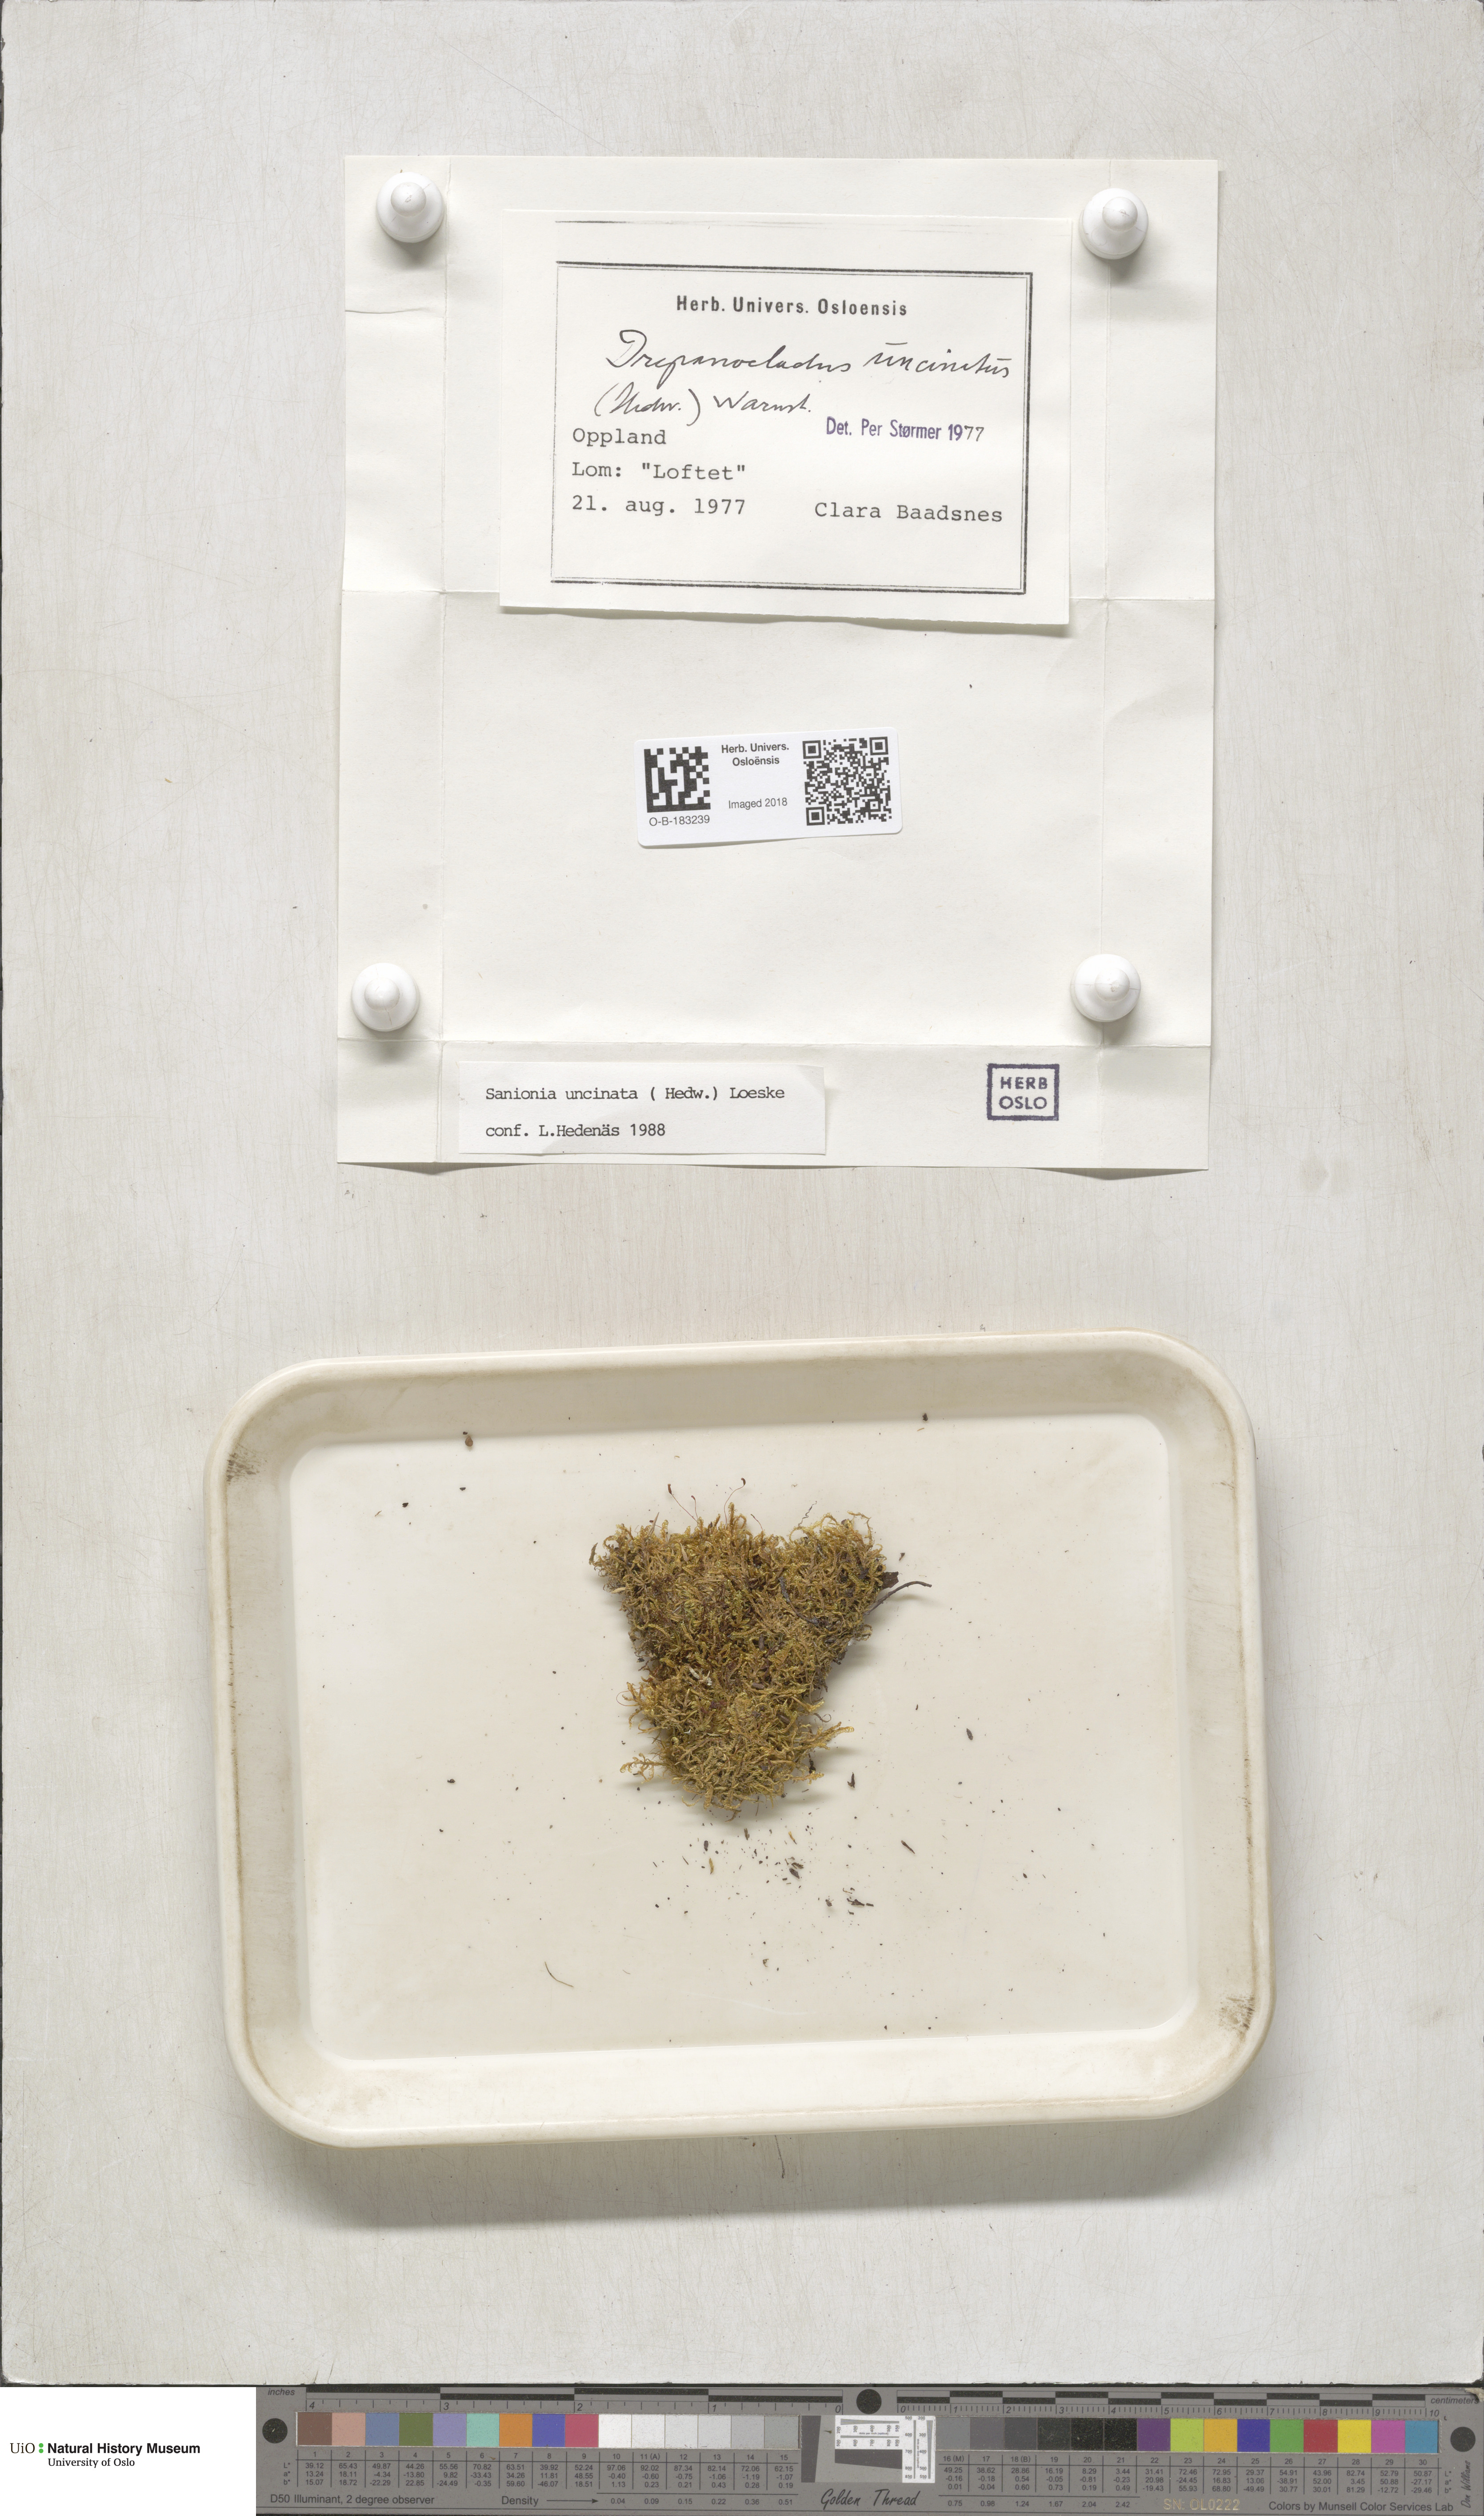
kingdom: Plantae
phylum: Bryophyta
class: Bryopsida
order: Hypnales
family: Scorpidiaceae
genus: Sanionia
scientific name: Sanionia uncinata
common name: Sickle moss
